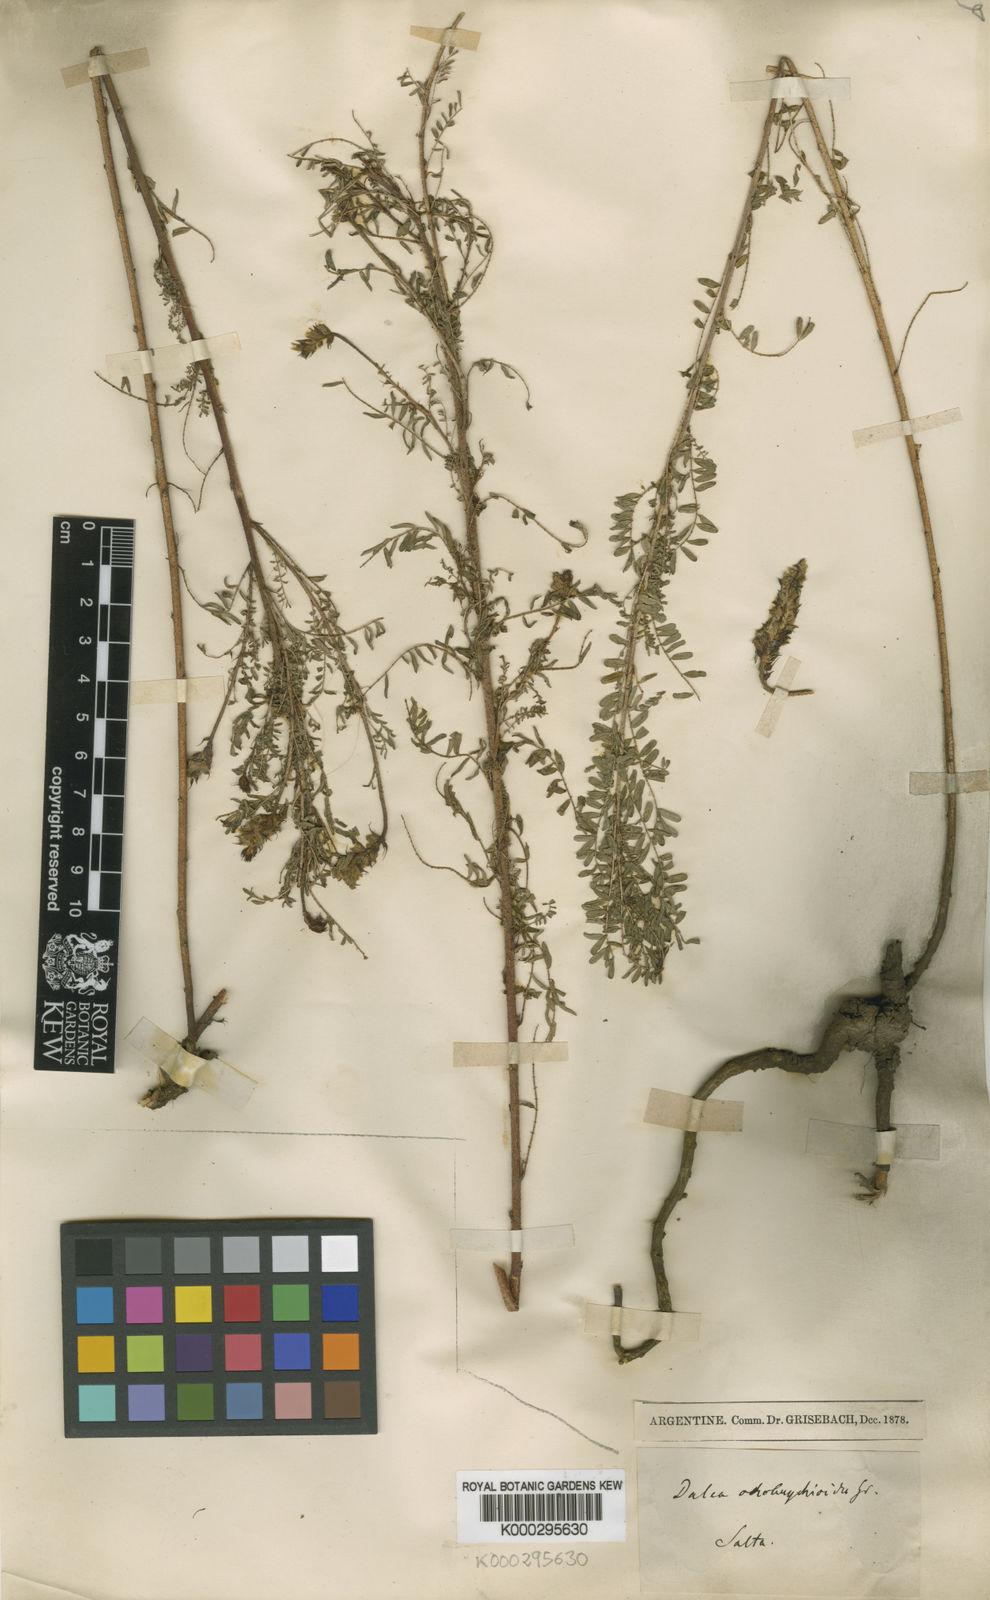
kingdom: Plantae
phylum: Tracheophyta
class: Magnoliopsida
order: Fabales
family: Fabaceae
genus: Dalea
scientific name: Dalea elegans
